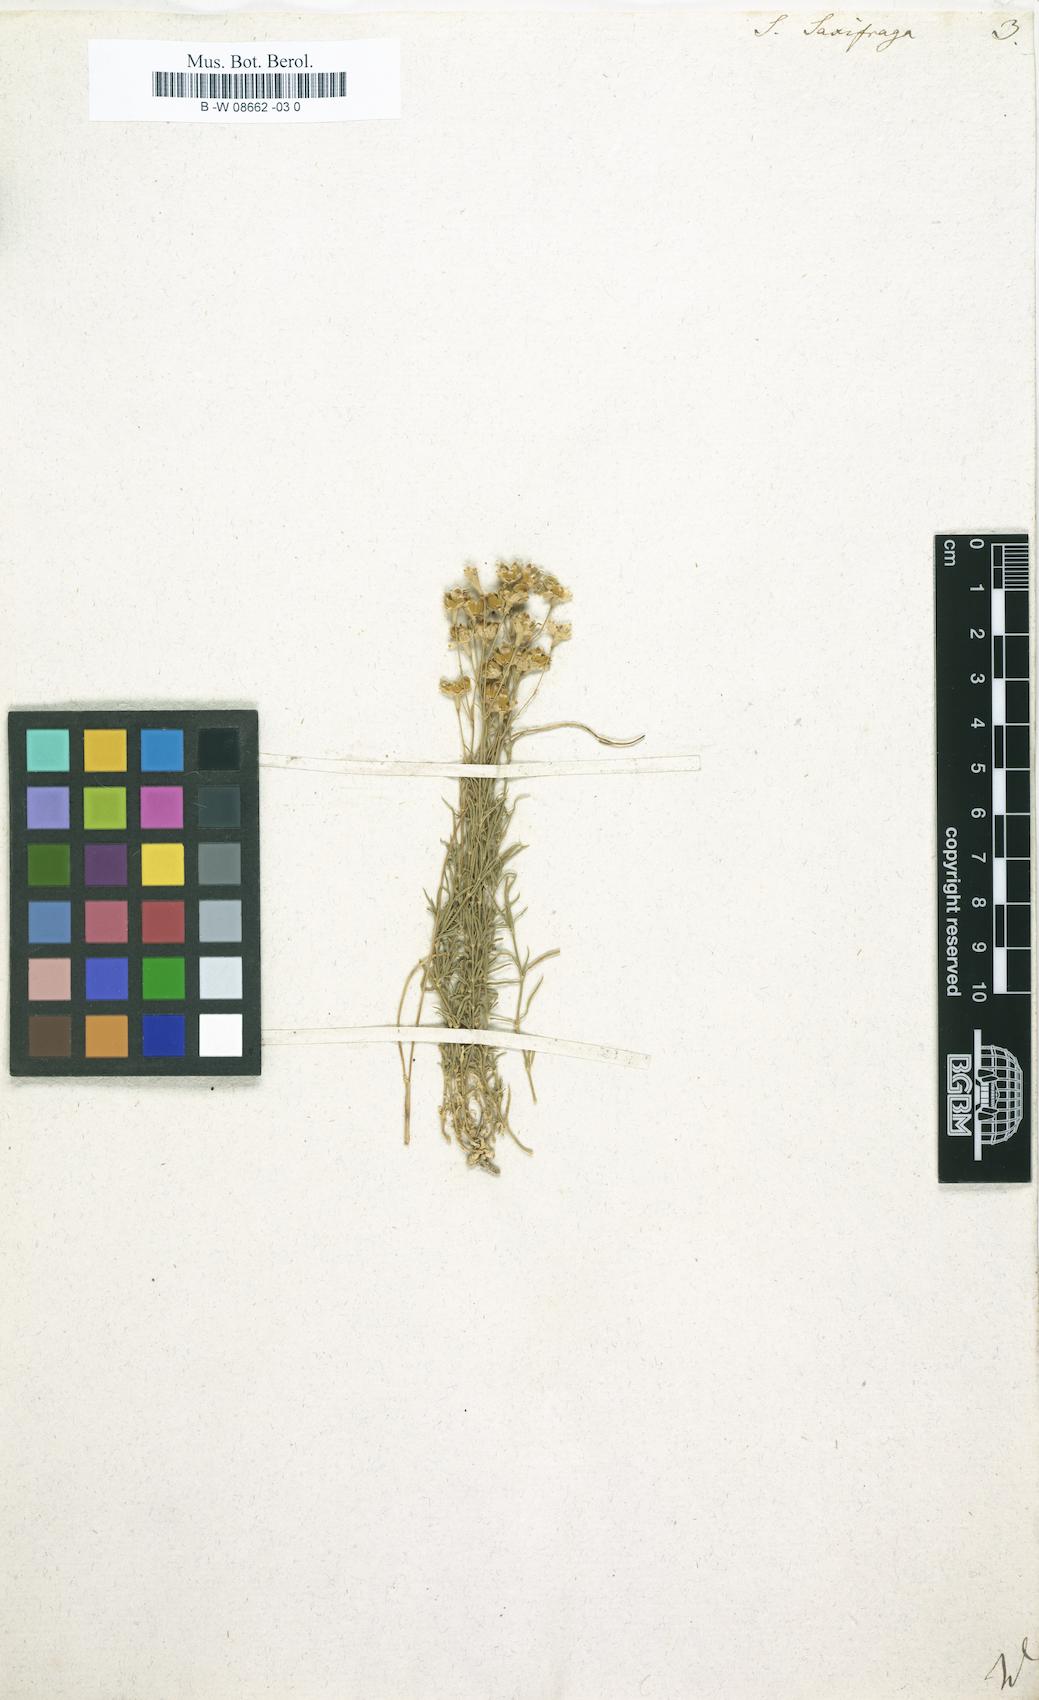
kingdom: Plantae
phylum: Tracheophyta
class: Magnoliopsida
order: Caryophyllales
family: Caryophyllaceae
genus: Silene
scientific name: Silene saxifraga
